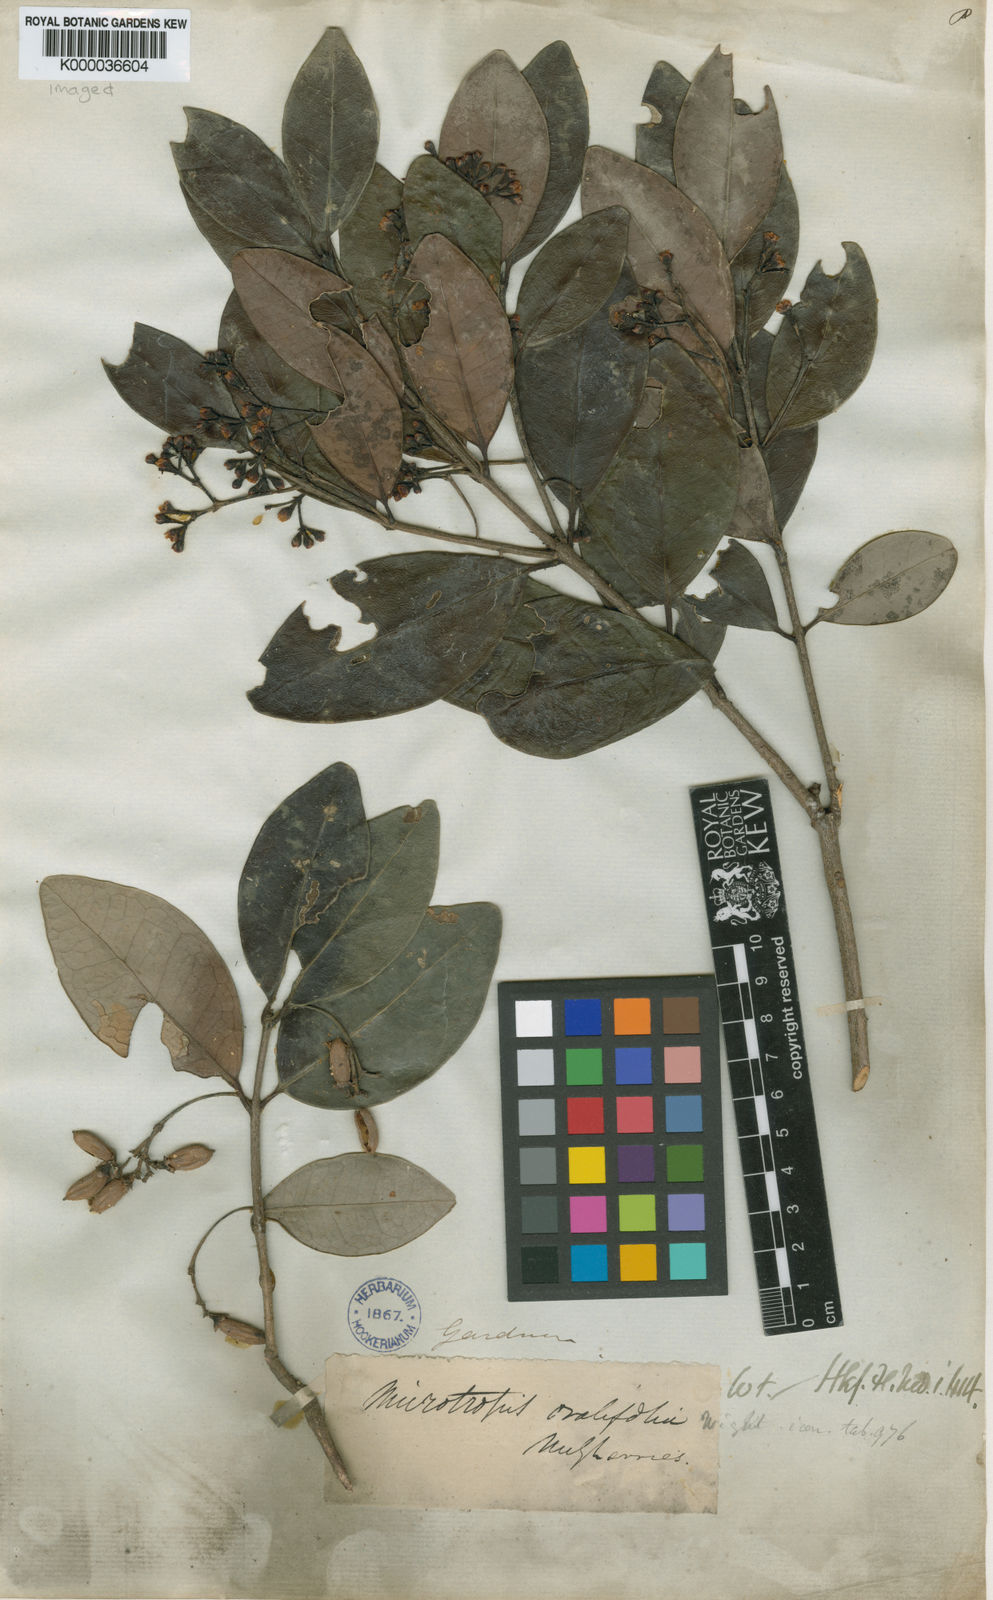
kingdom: Plantae
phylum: Tracheophyta
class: Magnoliopsida
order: Celastrales
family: Celastraceae
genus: Microtropis
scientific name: Microtropis microcarpa
